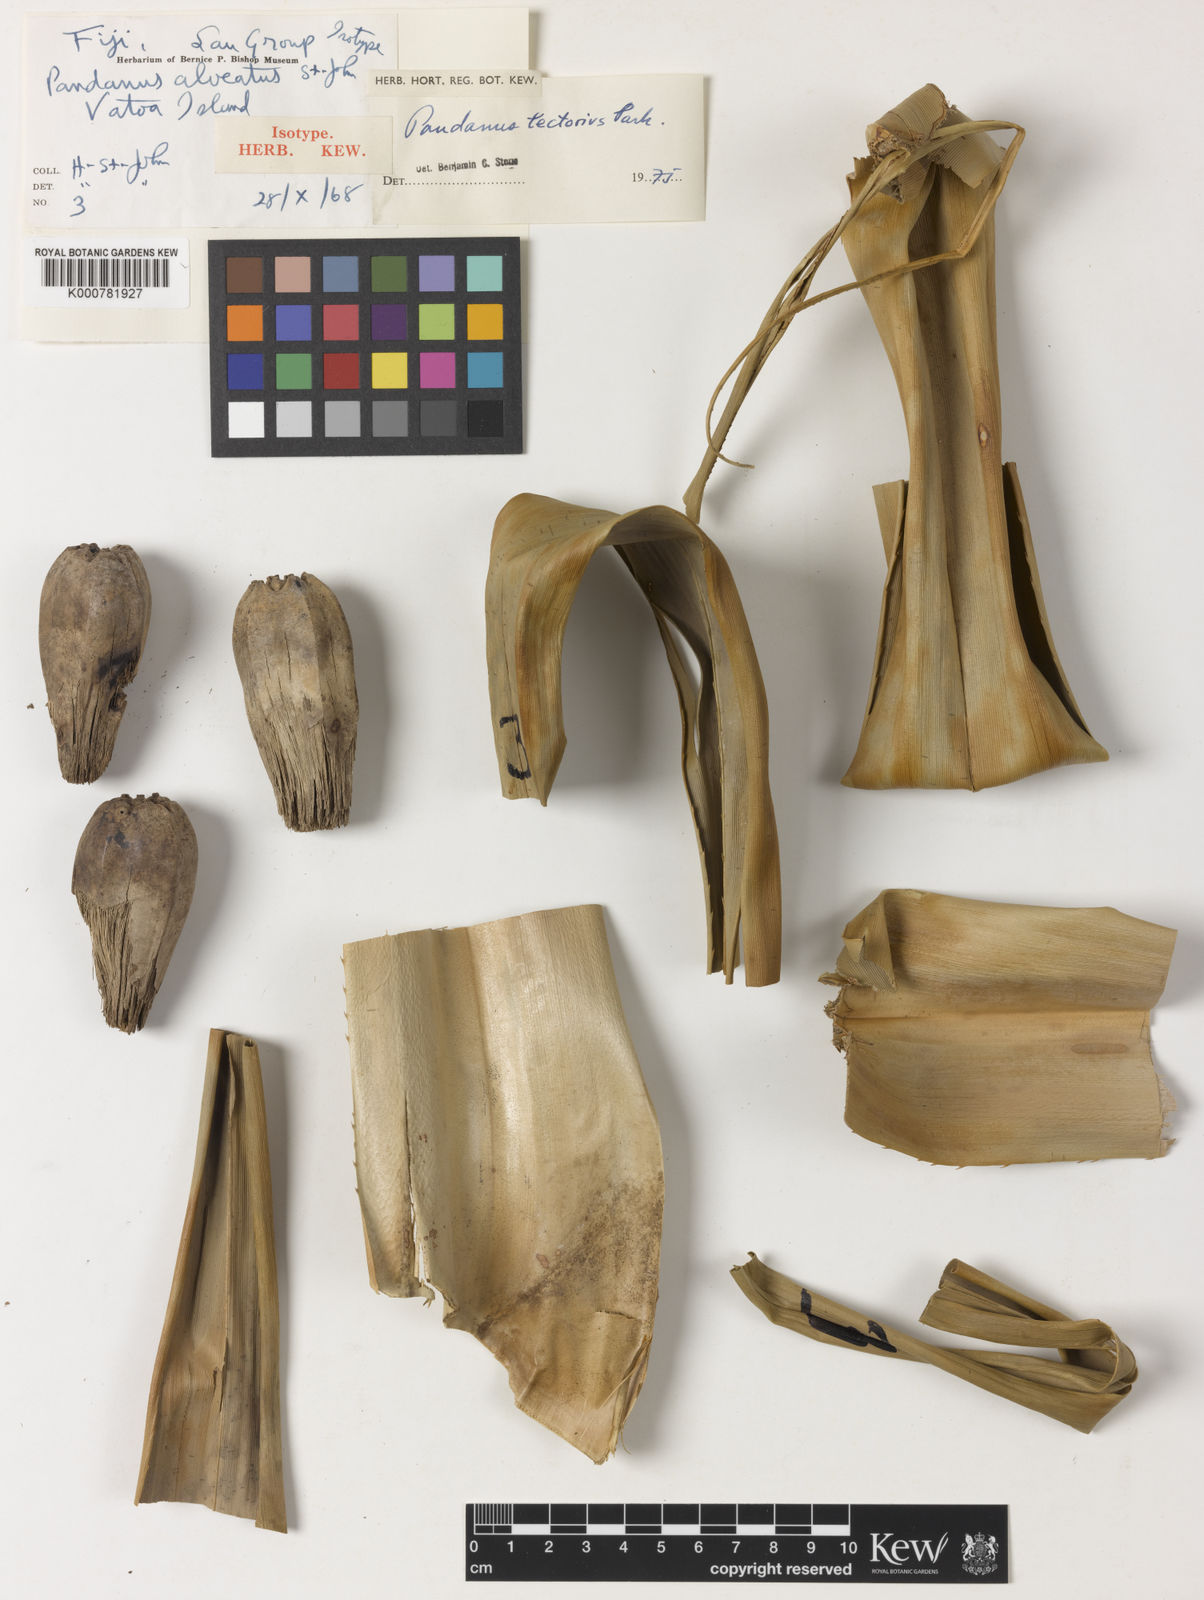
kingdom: Plantae
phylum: Tracheophyta
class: Liliopsida
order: Pandanales
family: Pandanaceae
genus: Pandanus
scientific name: Pandanus
